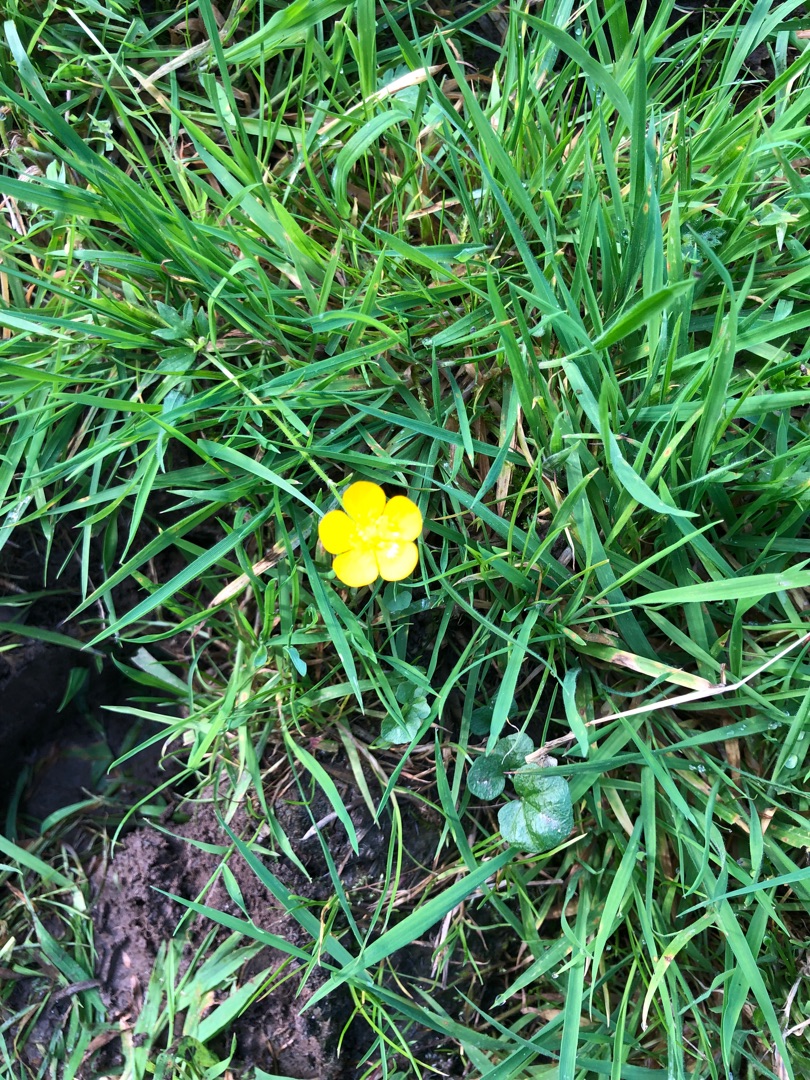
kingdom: Plantae
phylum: Tracheophyta
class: Magnoliopsida
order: Ranunculales
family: Ranunculaceae
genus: Ranunculus
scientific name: Ranunculus
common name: Ranunkelslægten
